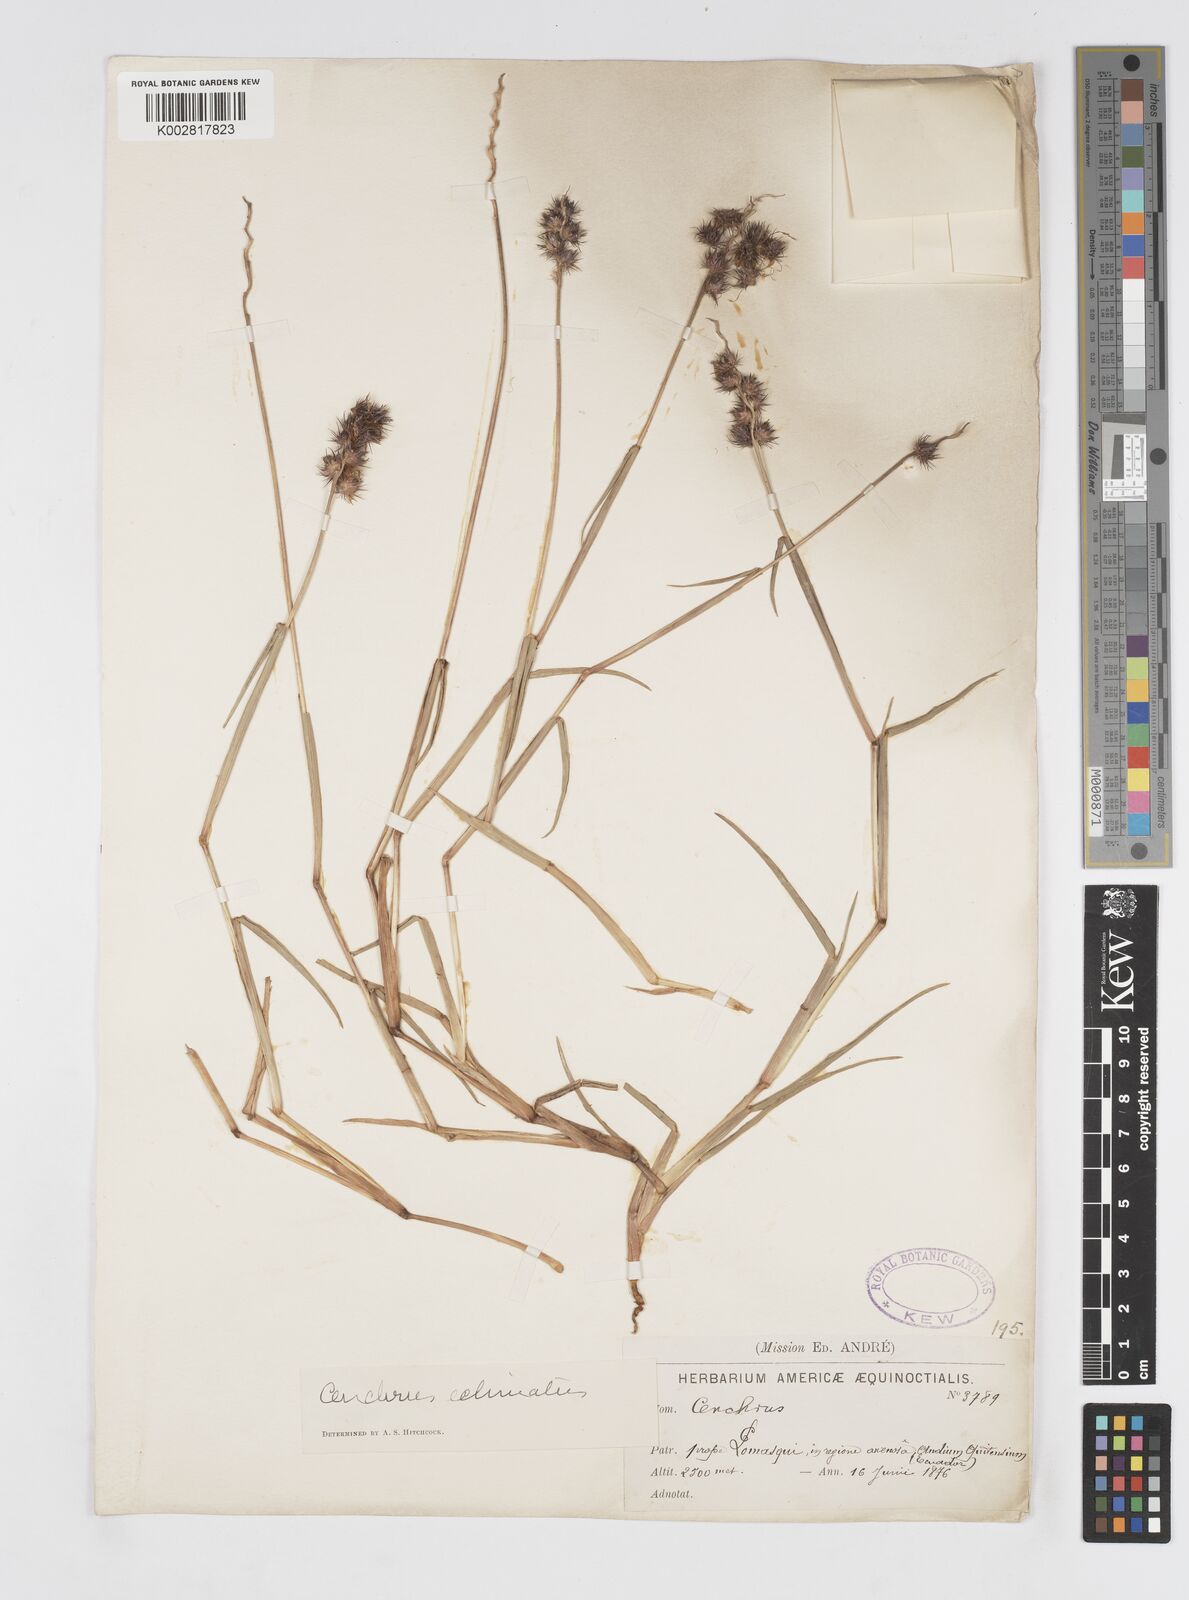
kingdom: Plantae
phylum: Tracheophyta
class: Liliopsida
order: Poales
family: Poaceae
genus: Cenchrus
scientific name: Cenchrus
